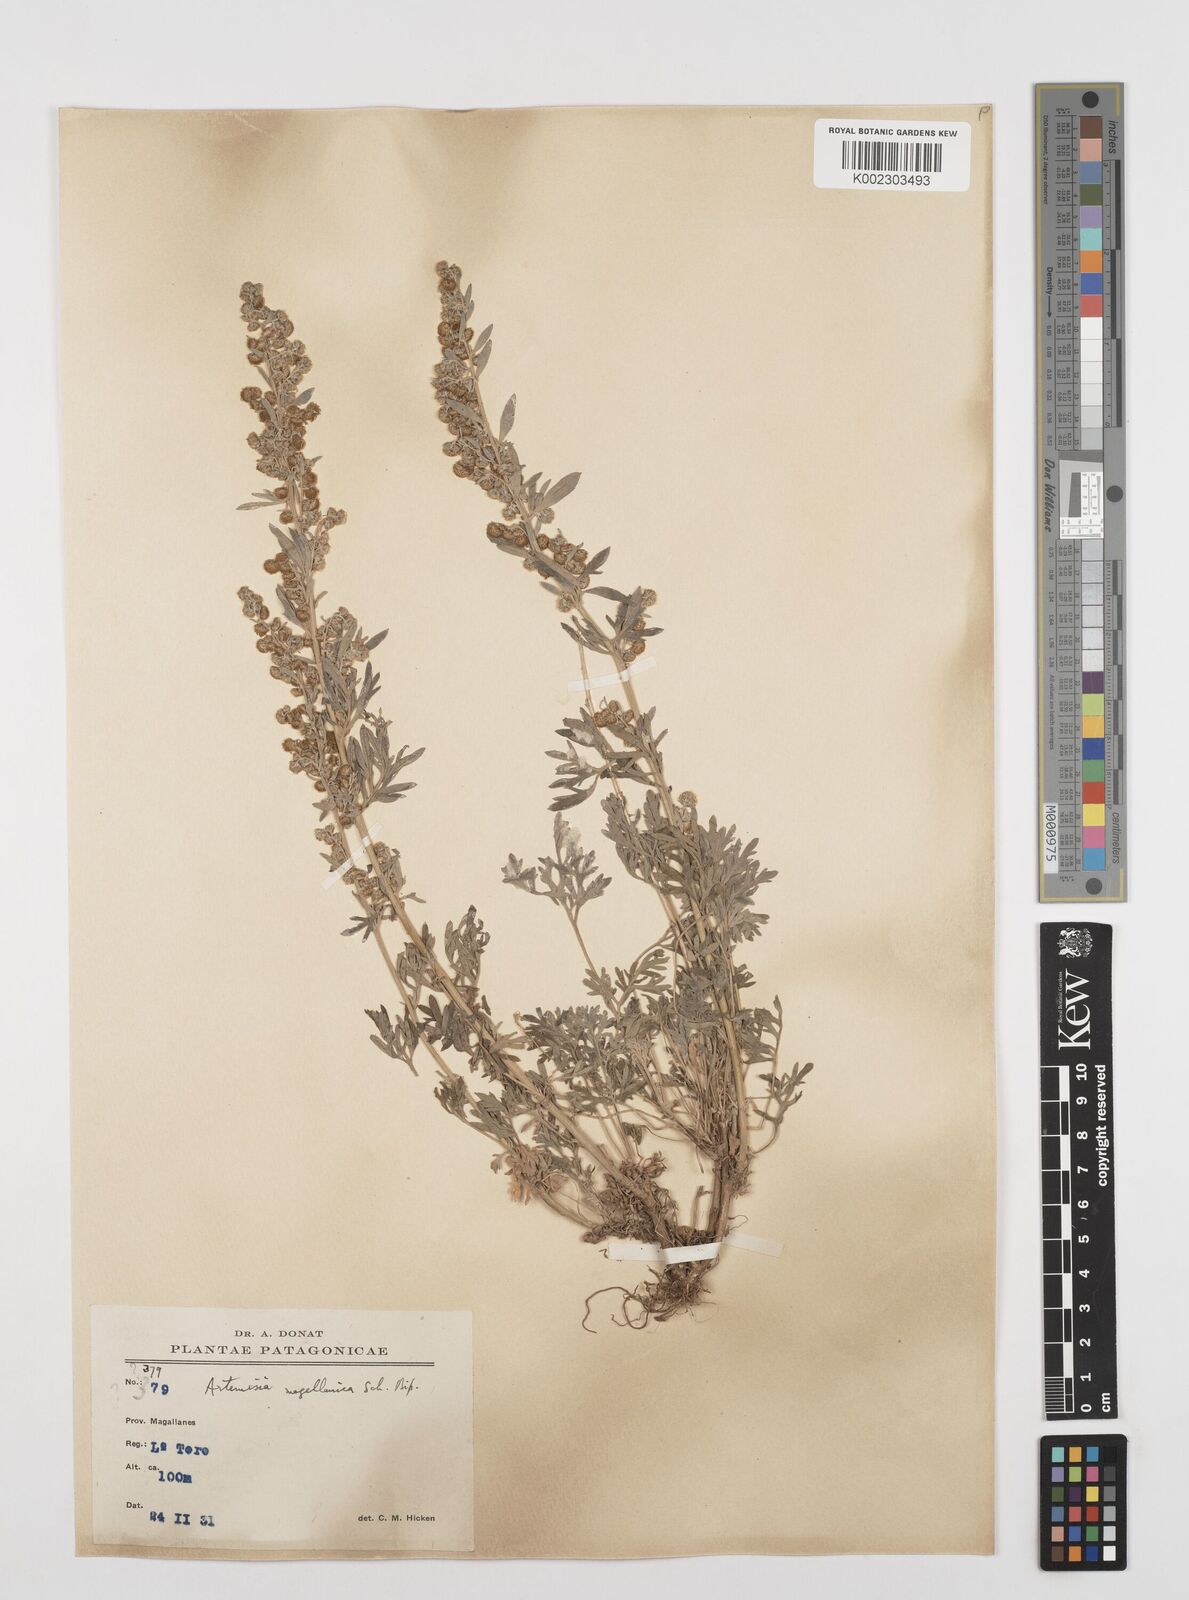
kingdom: Plantae
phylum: Tracheophyta
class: Magnoliopsida
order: Asterales
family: Asteraceae
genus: Artemisia
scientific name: Artemisia
